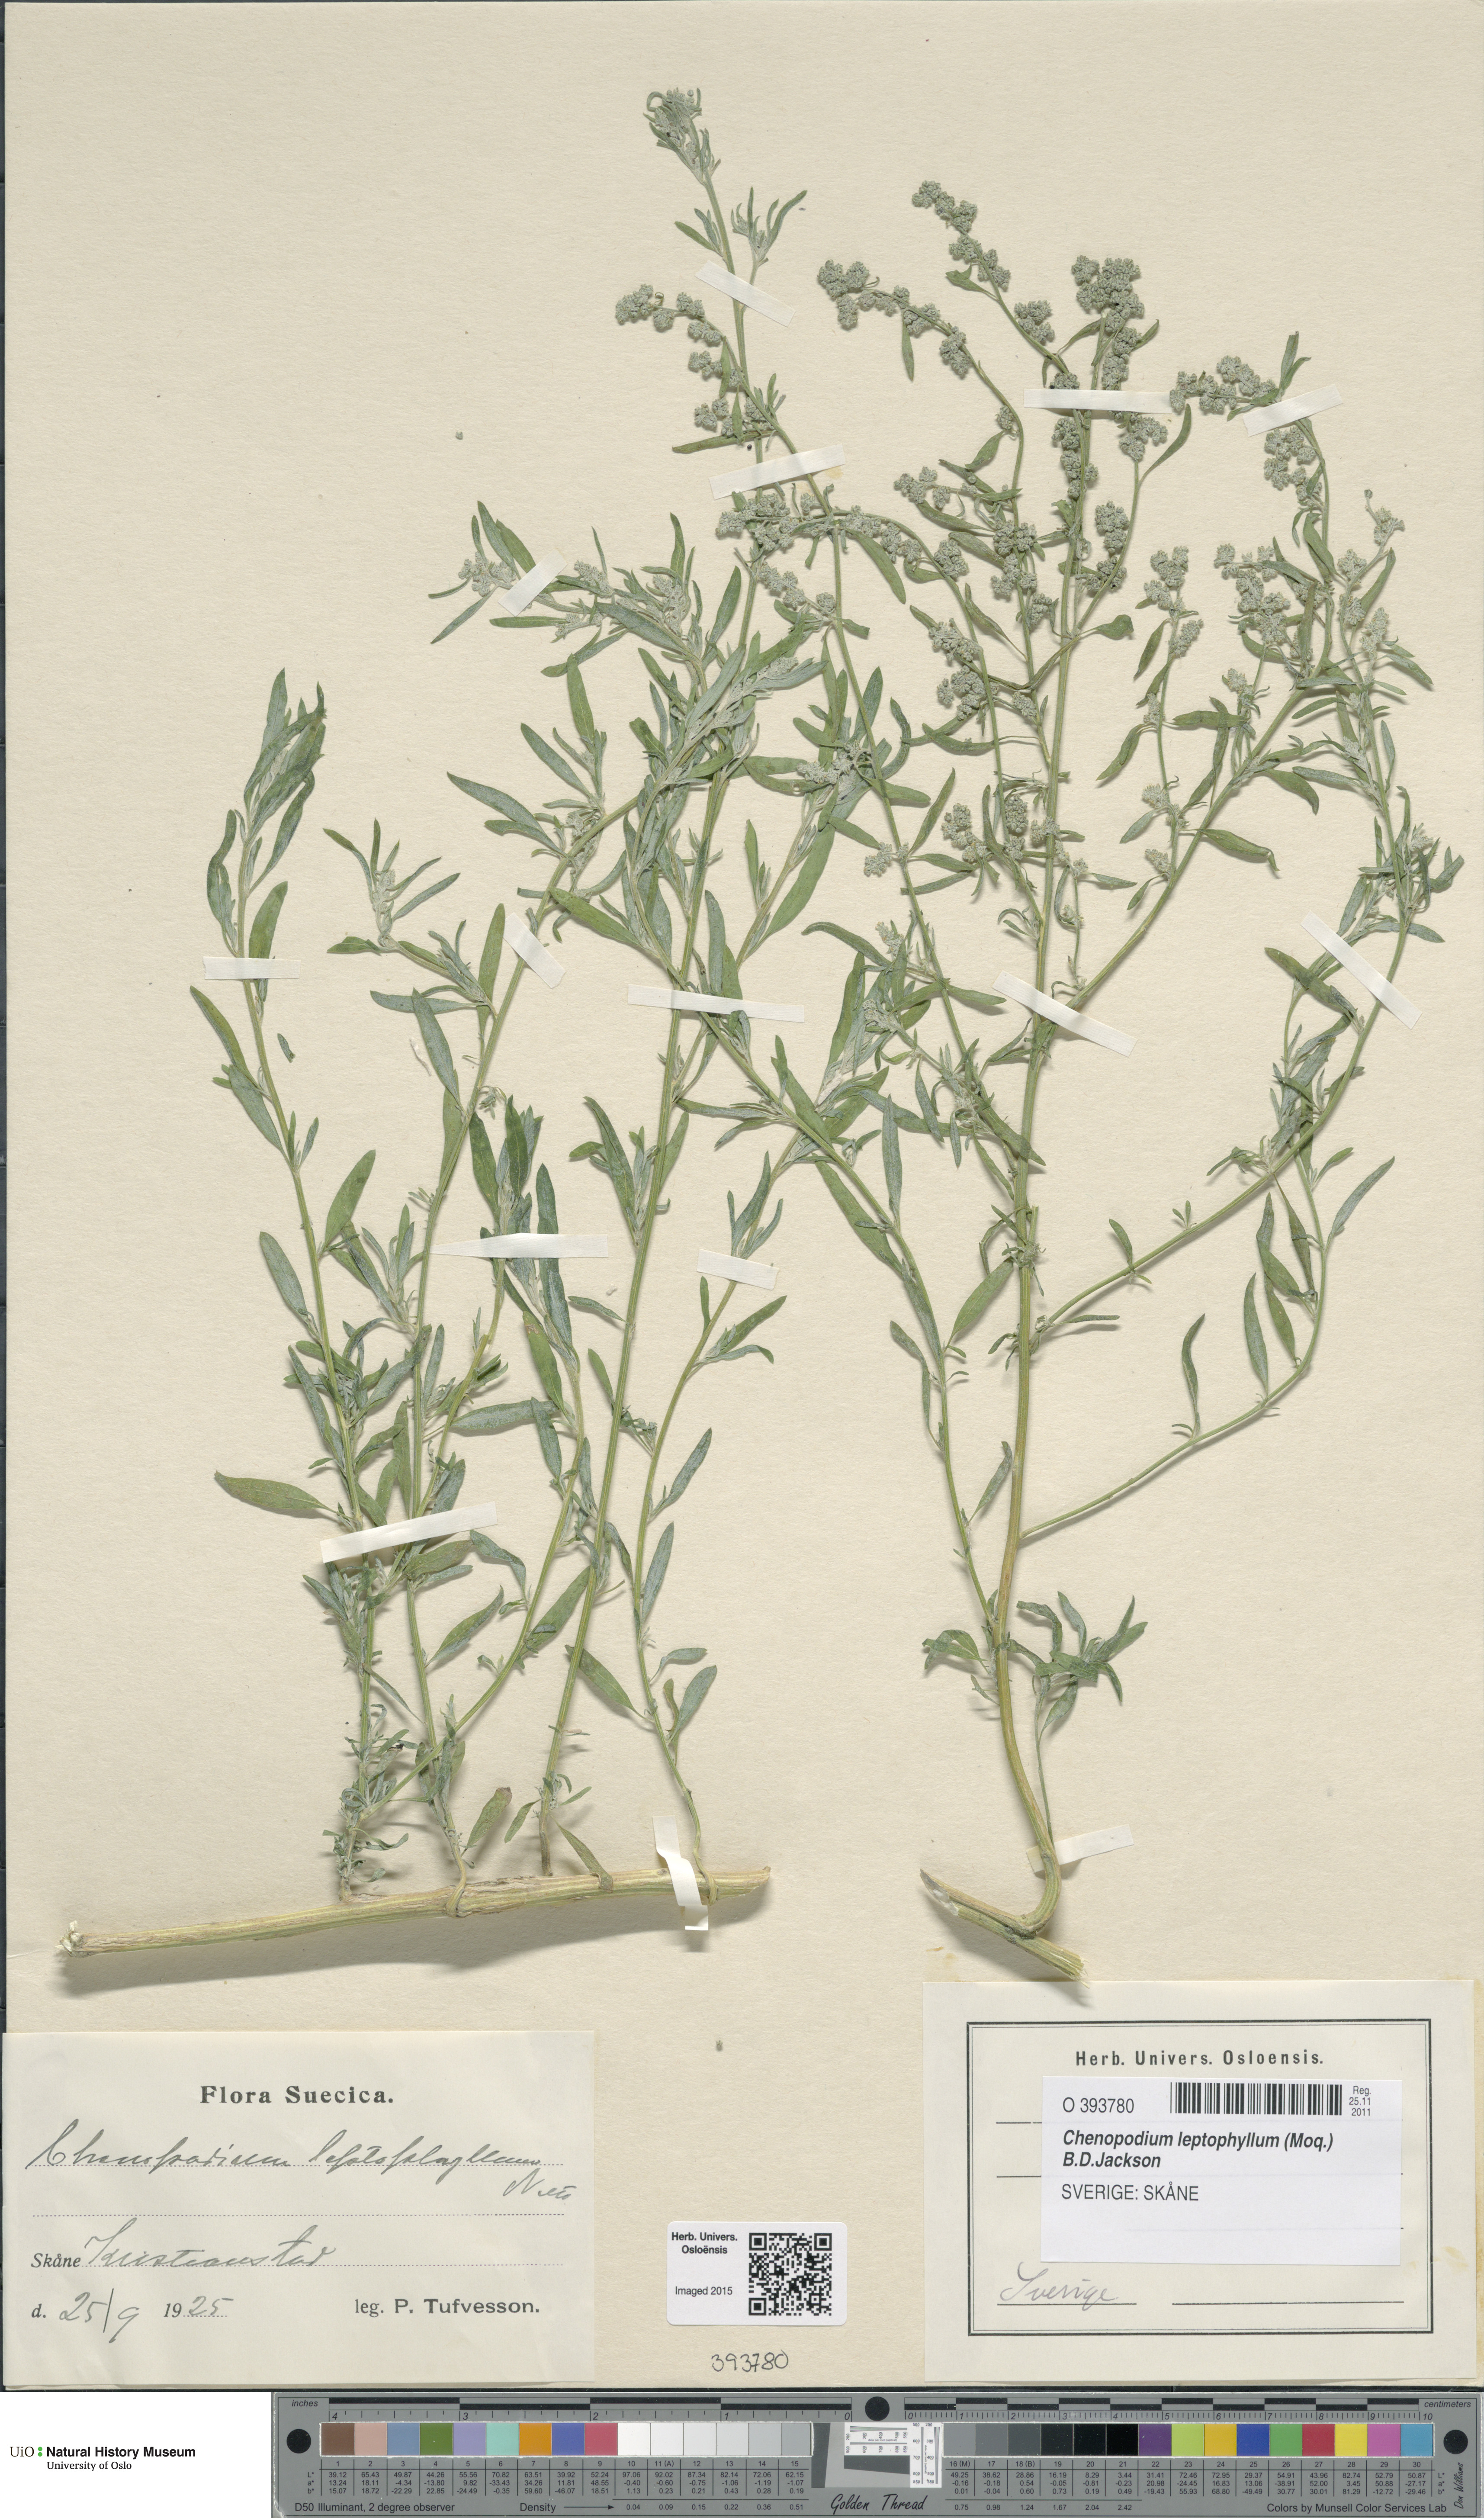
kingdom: Plantae
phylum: Tracheophyta
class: Magnoliopsida
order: Caryophyllales
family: Amaranthaceae
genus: Chenopodium
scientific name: Chenopodium leptophyllum
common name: Narrow-leaf goosefoot
